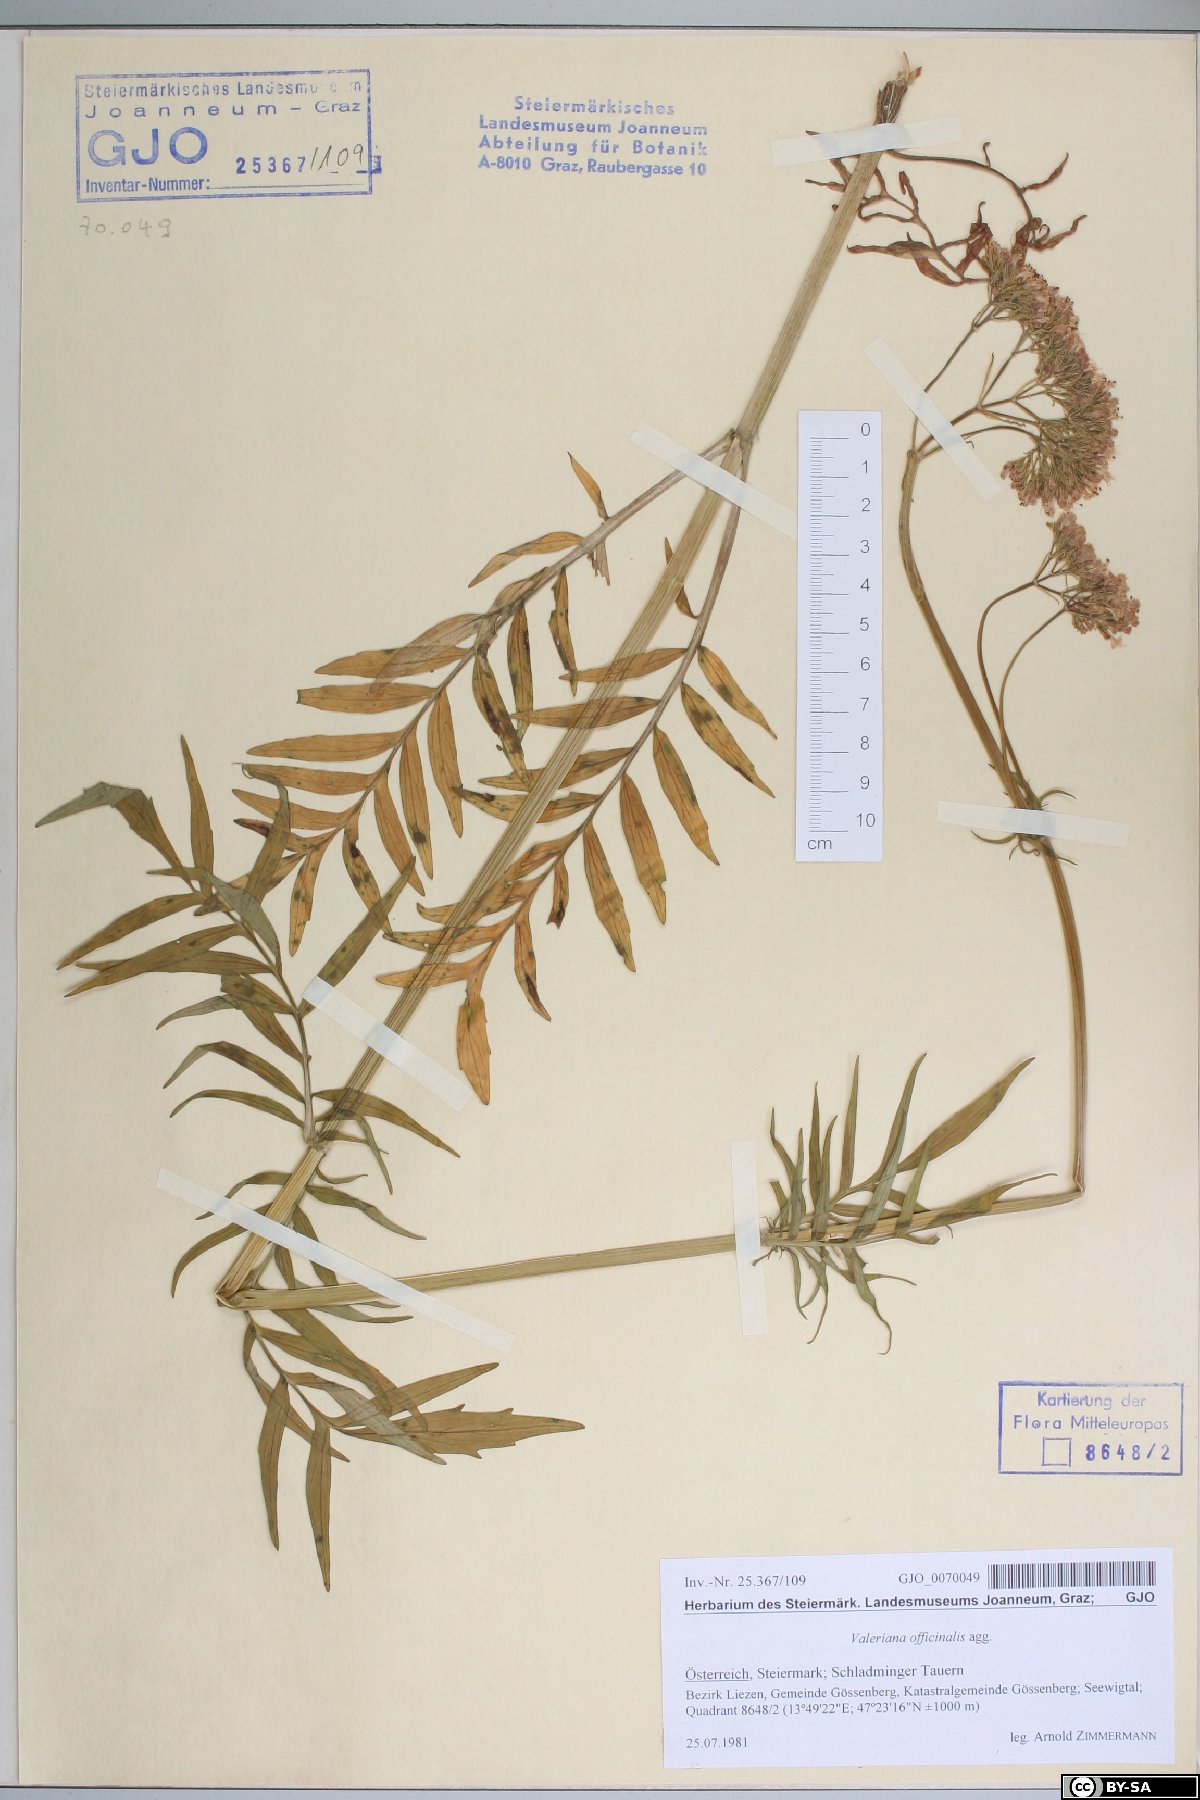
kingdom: Plantae
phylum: Tracheophyta
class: Magnoliopsida
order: Dipsacales
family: Caprifoliaceae
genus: Valeriana
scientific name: Valeriana officinalis
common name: Common valerian
